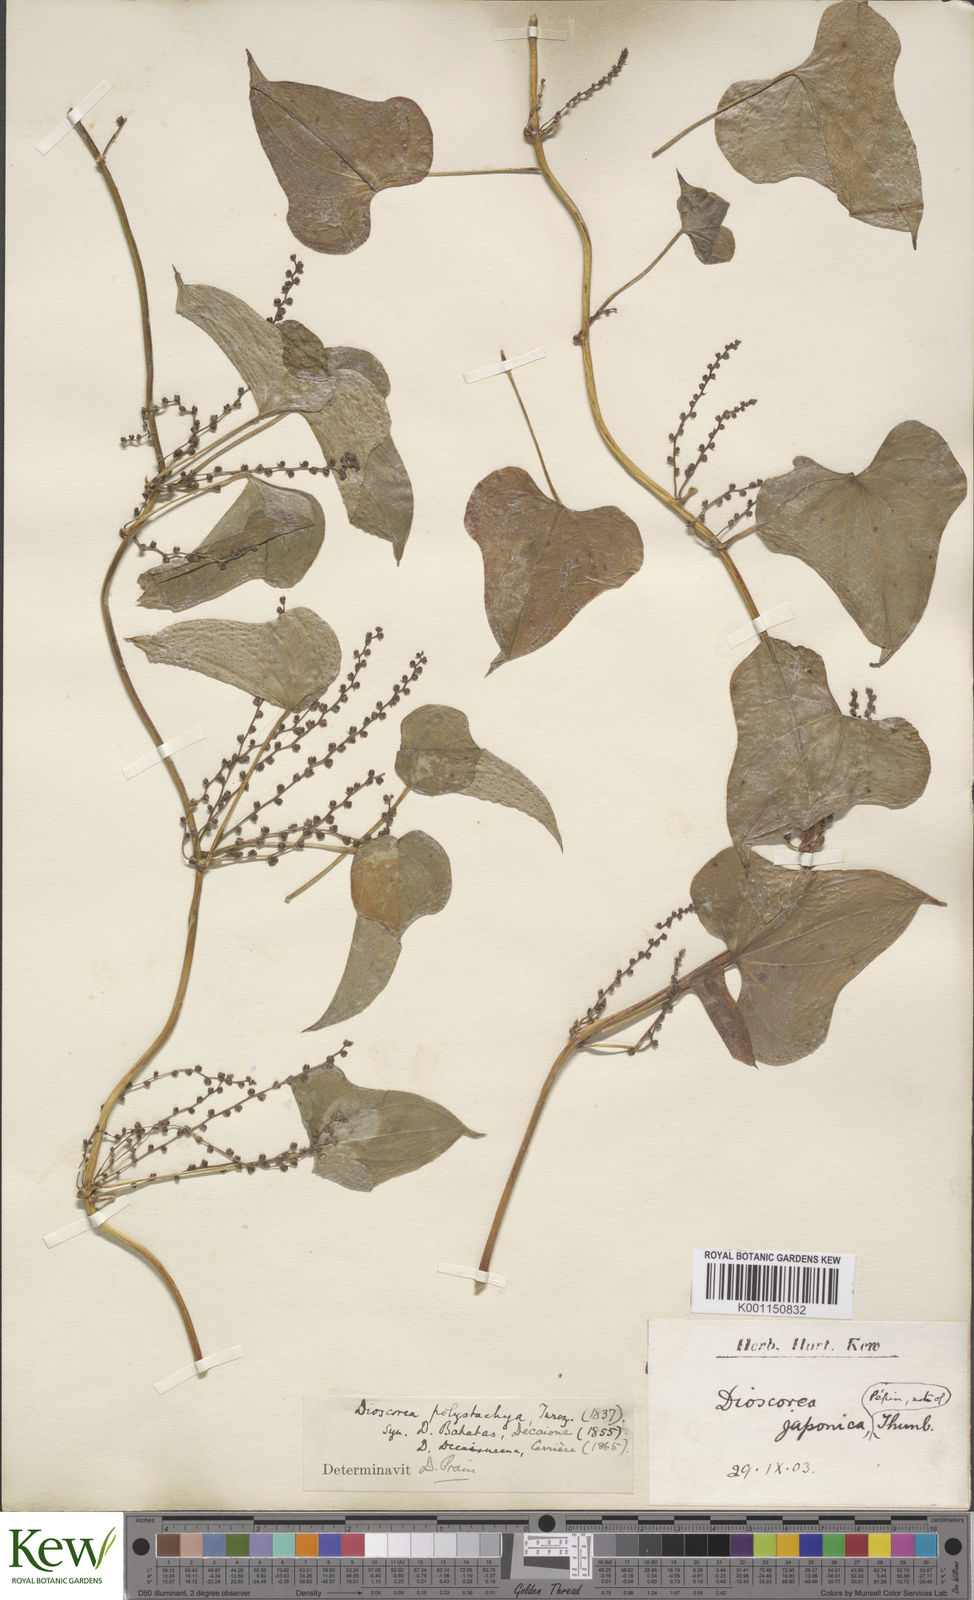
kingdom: Plantae
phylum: Tracheophyta
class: Liliopsida
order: Dioscoreales
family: Dioscoreaceae
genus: Dioscorea
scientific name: Dioscorea polystachya
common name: Chinese yam
